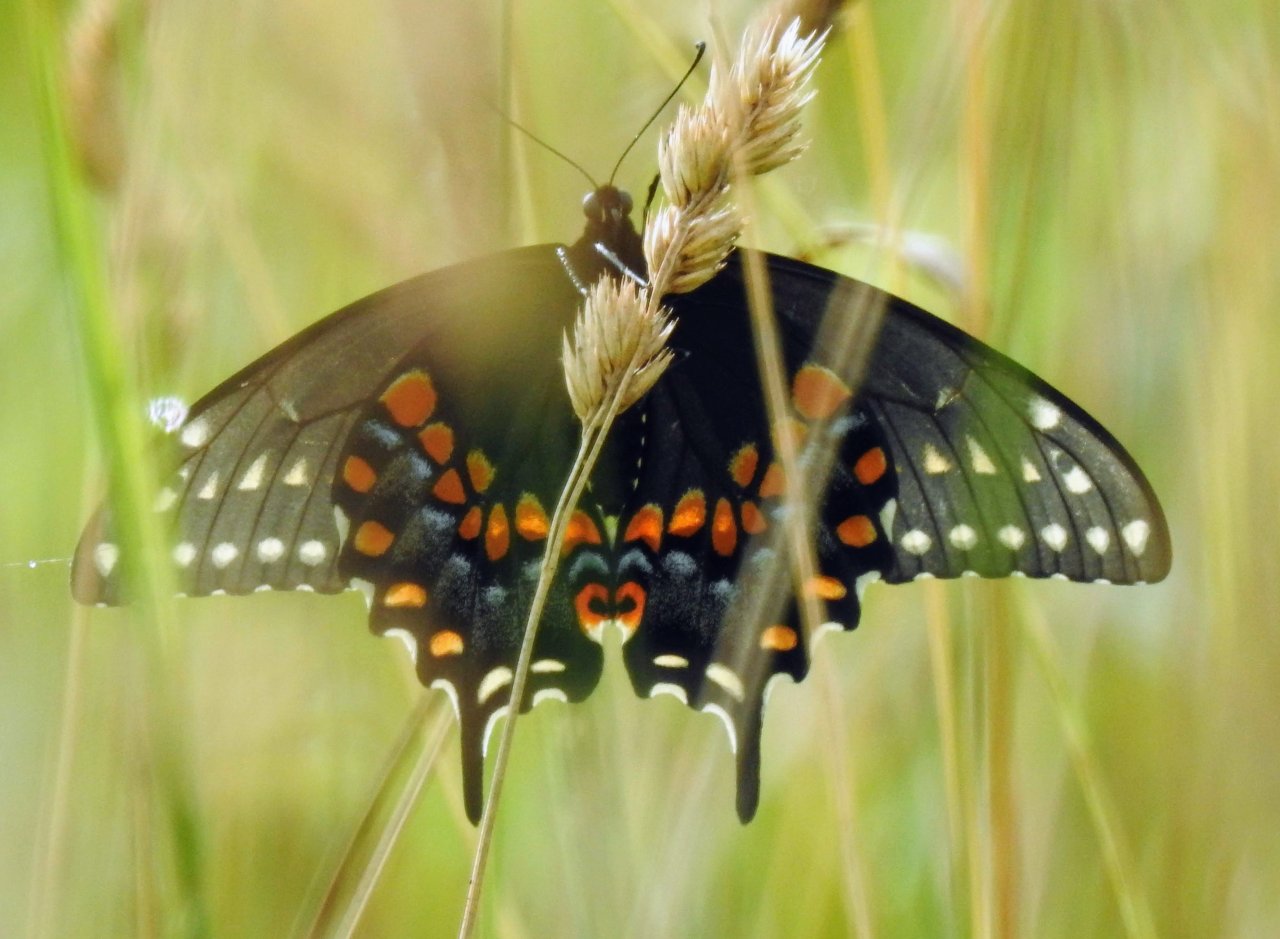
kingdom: Animalia
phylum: Arthropoda
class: Insecta
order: Lepidoptera
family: Papilionidae
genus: Papilio
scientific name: Papilio polyxenes
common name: Black Swallowtail
